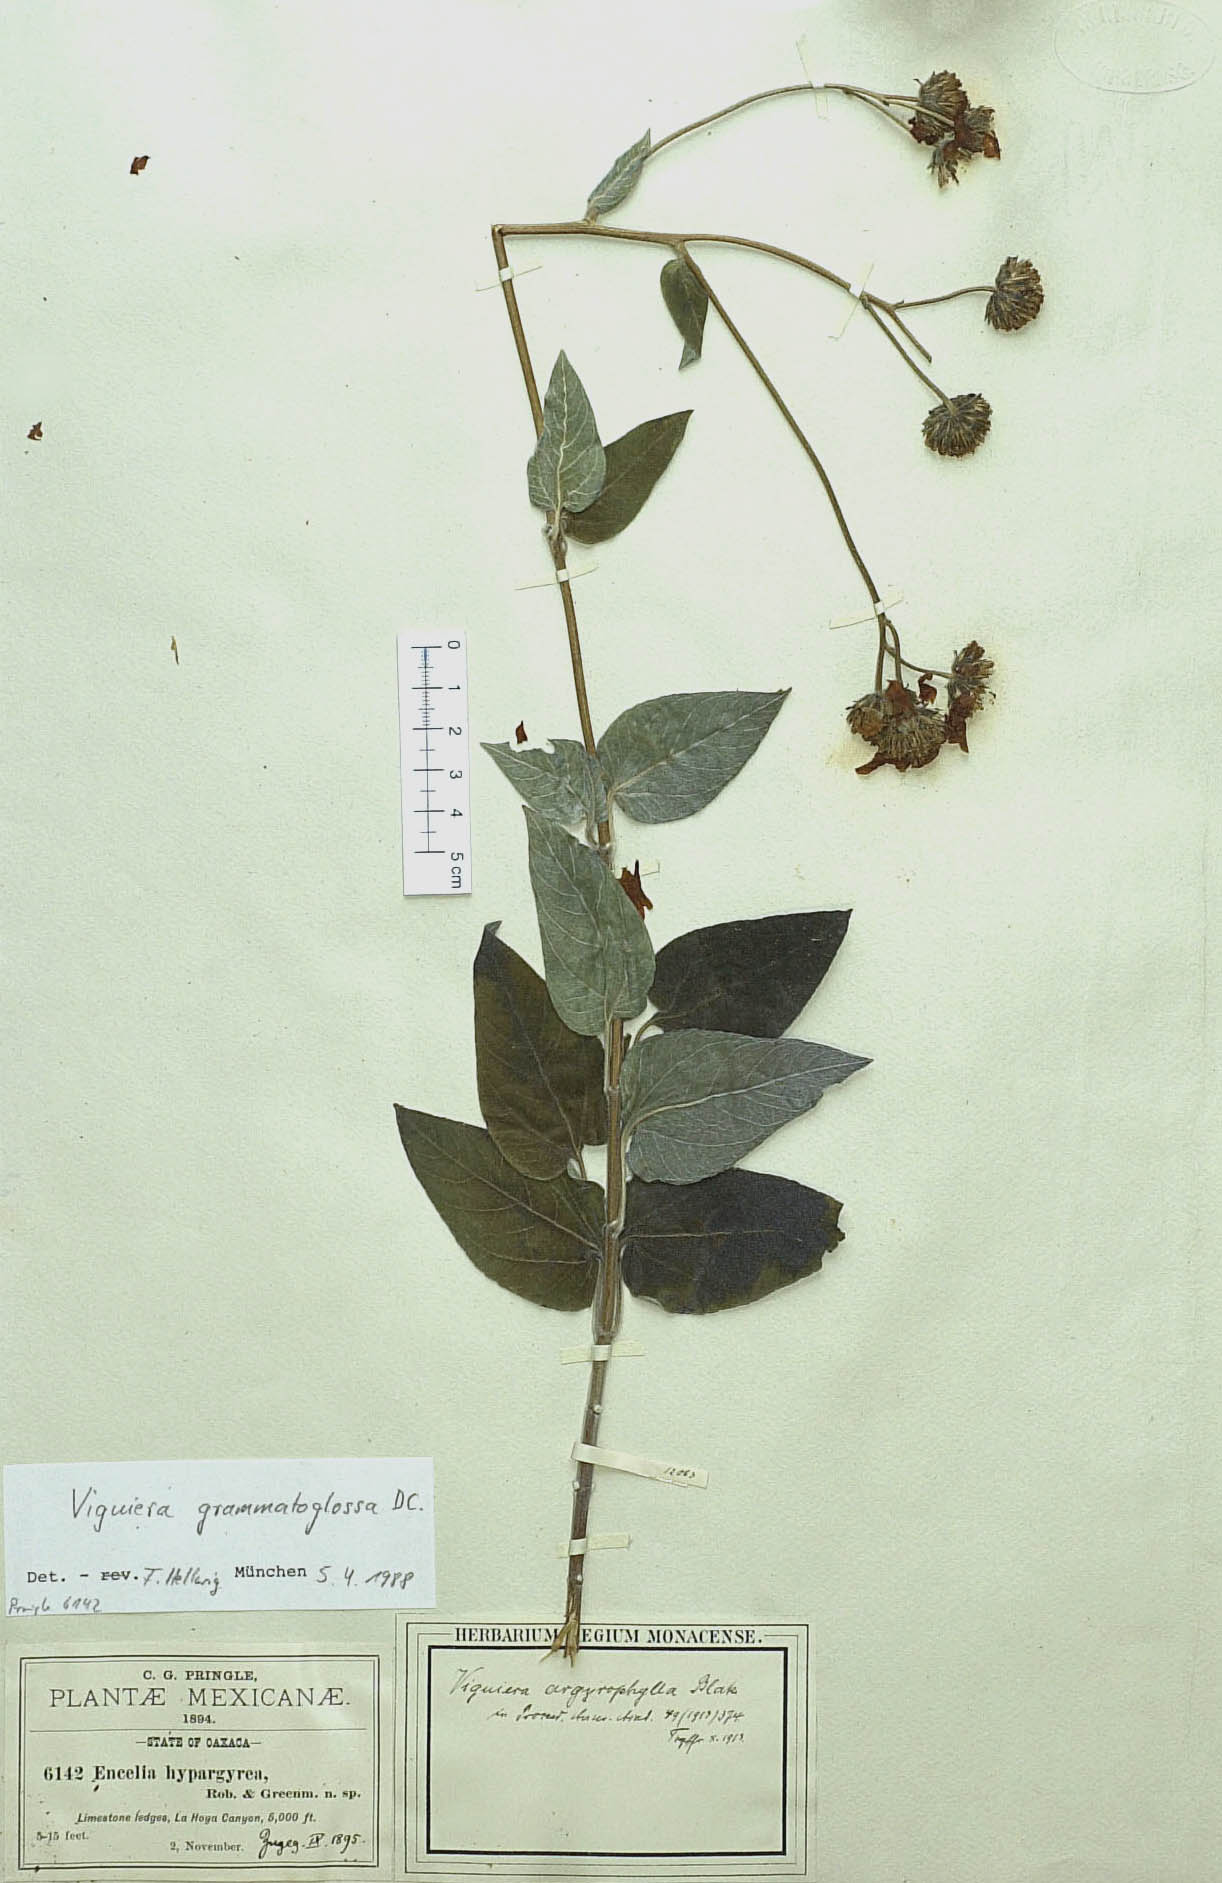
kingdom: Plantae
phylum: Tracheophyta
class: Magnoliopsida
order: Asterales
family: Asteraceae
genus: Davilanthus
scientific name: Davilanthus hypargyreus
